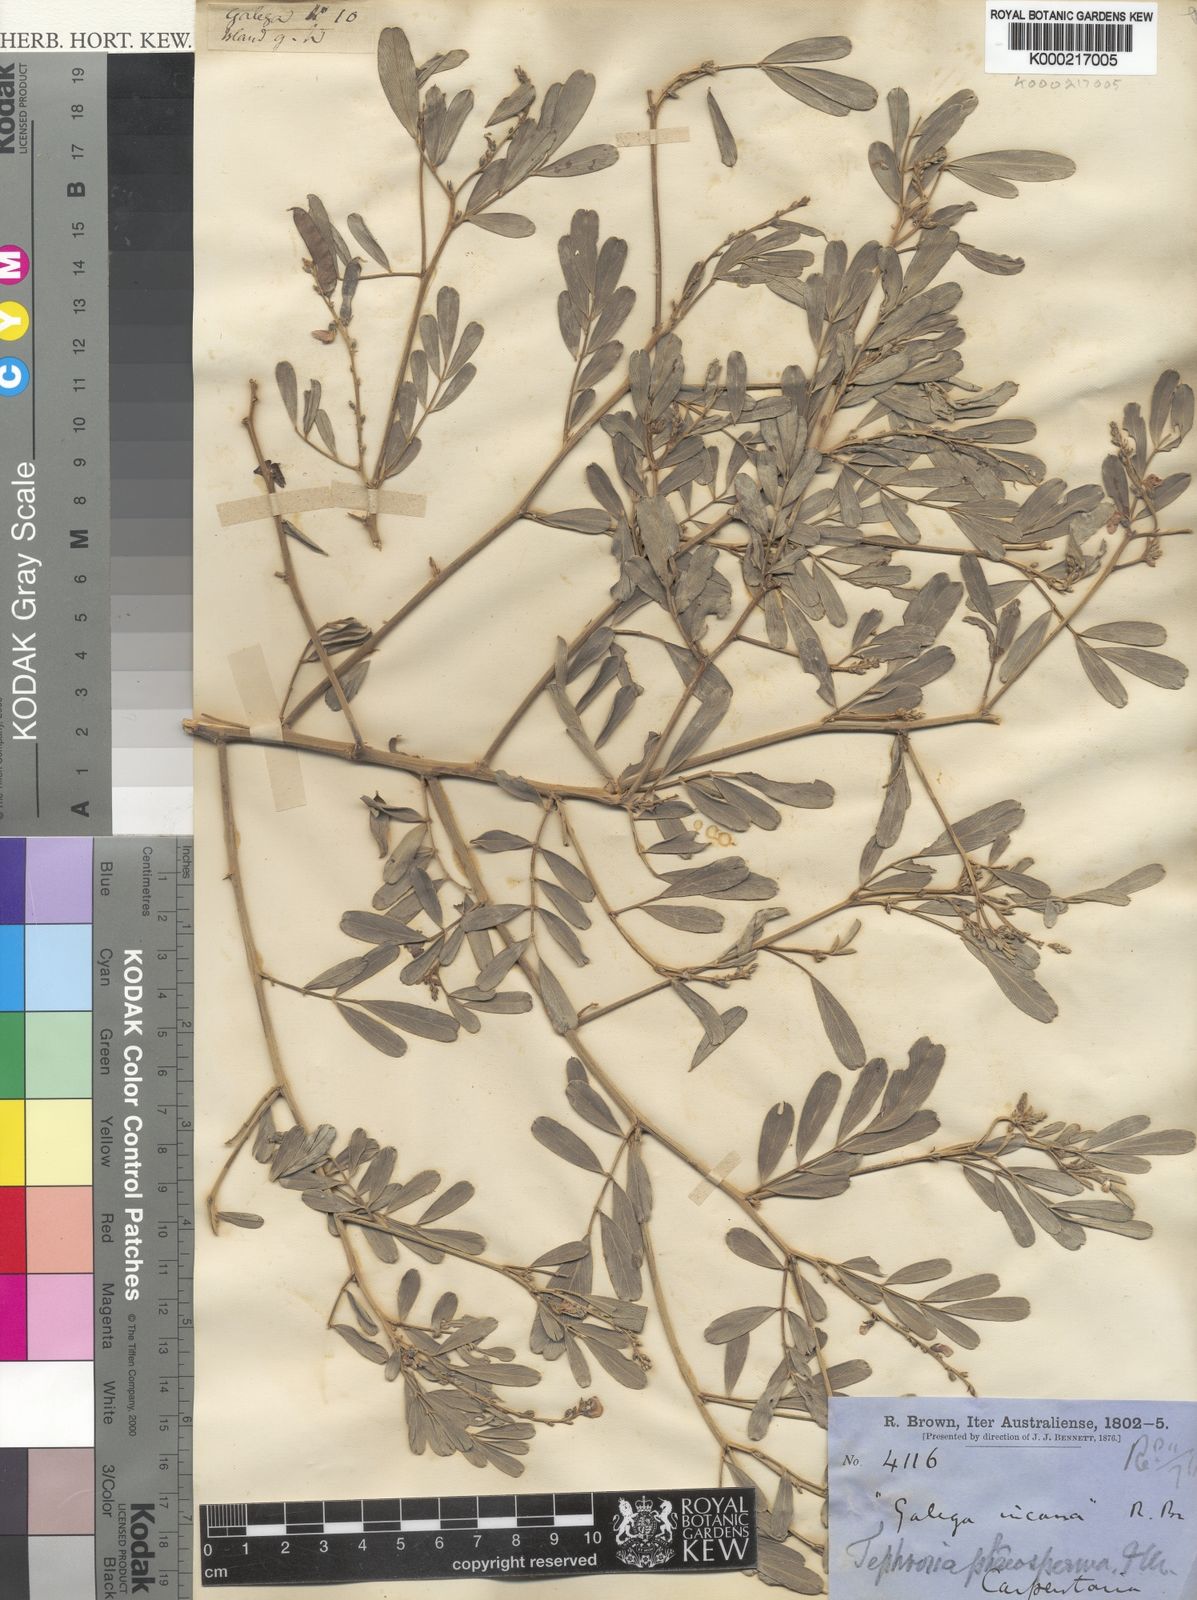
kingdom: Plantae
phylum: Tracheophyta
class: Magnoliopsida
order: Fabales
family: Fabaceae
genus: Tephrosia
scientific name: Tephrosia phaeosperma
